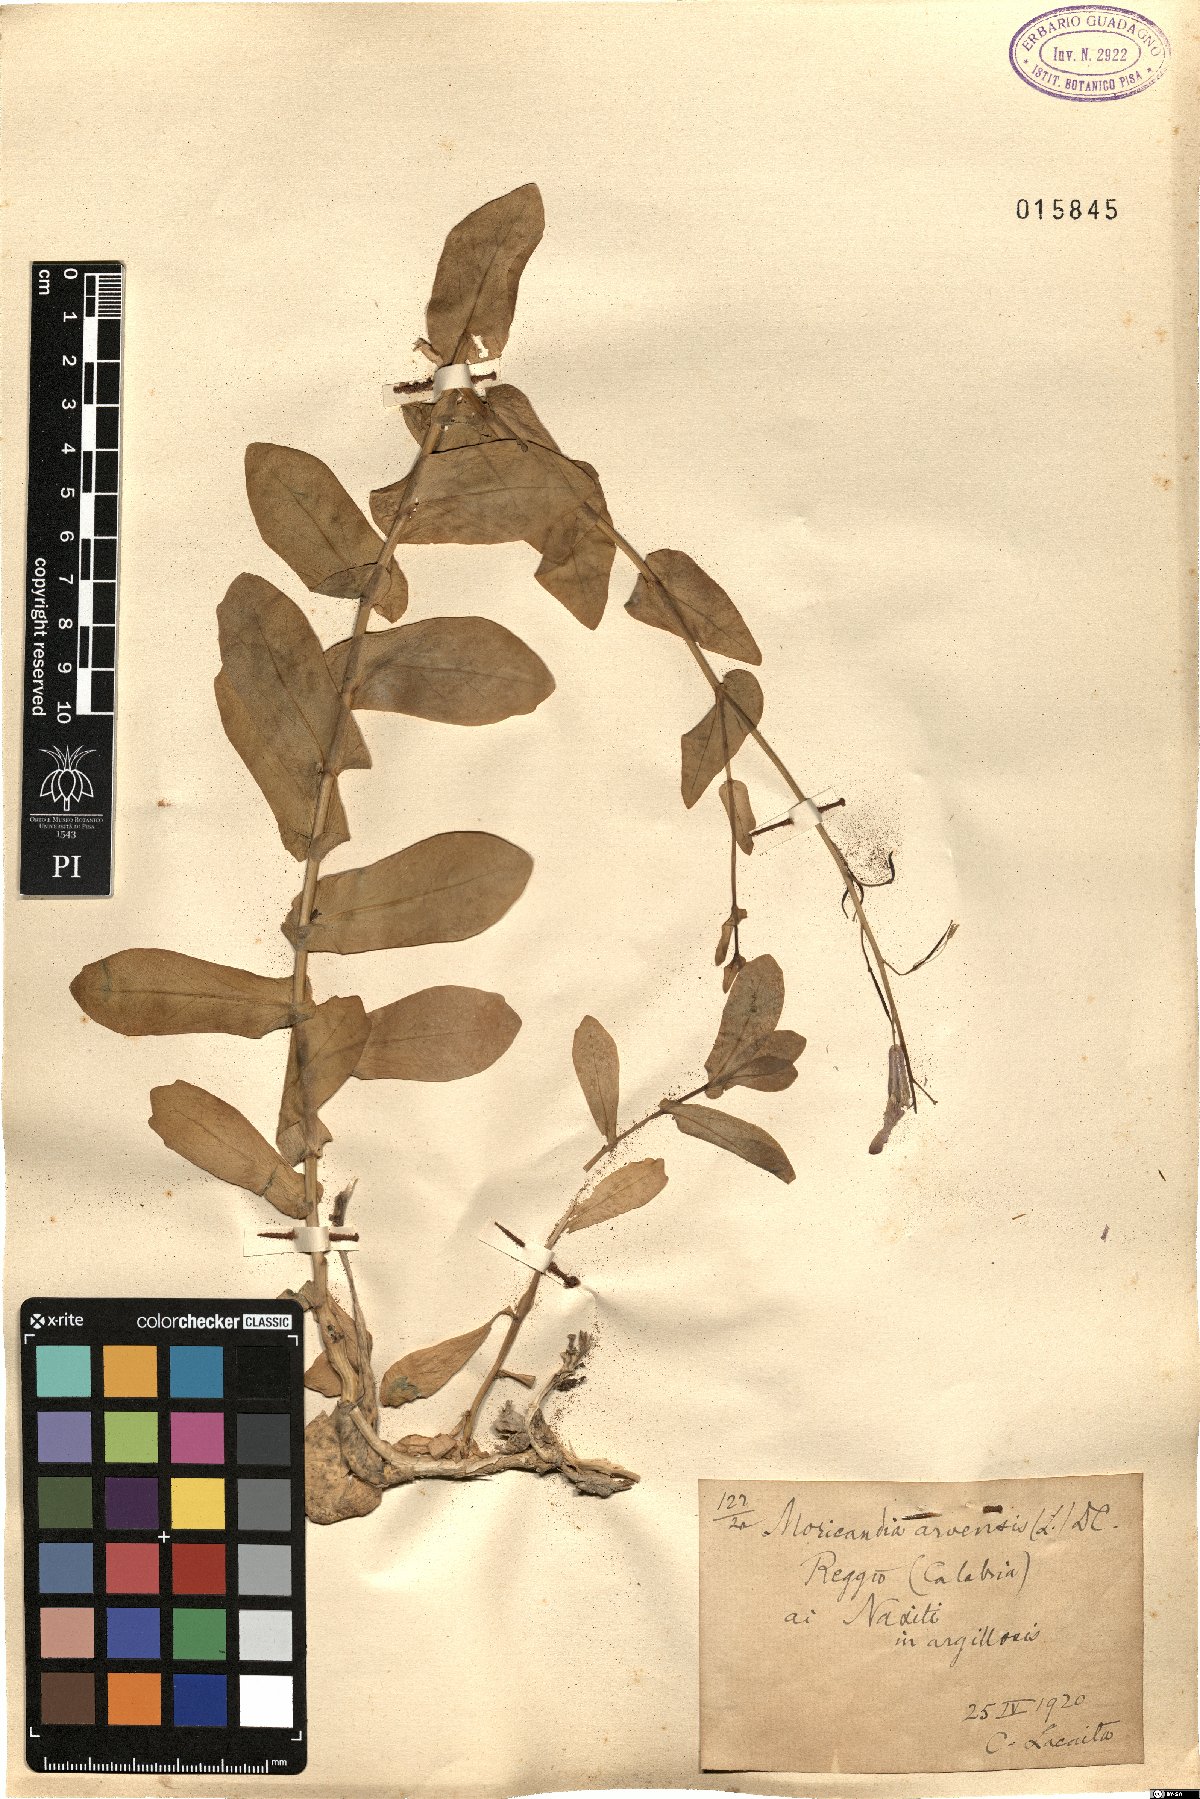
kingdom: Plantae
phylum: Tracheophyta
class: Magnoliopsida
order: Brassicales
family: Brassicaceae
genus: Moricandia
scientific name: Moricandia arvensis
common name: Purple mistress
